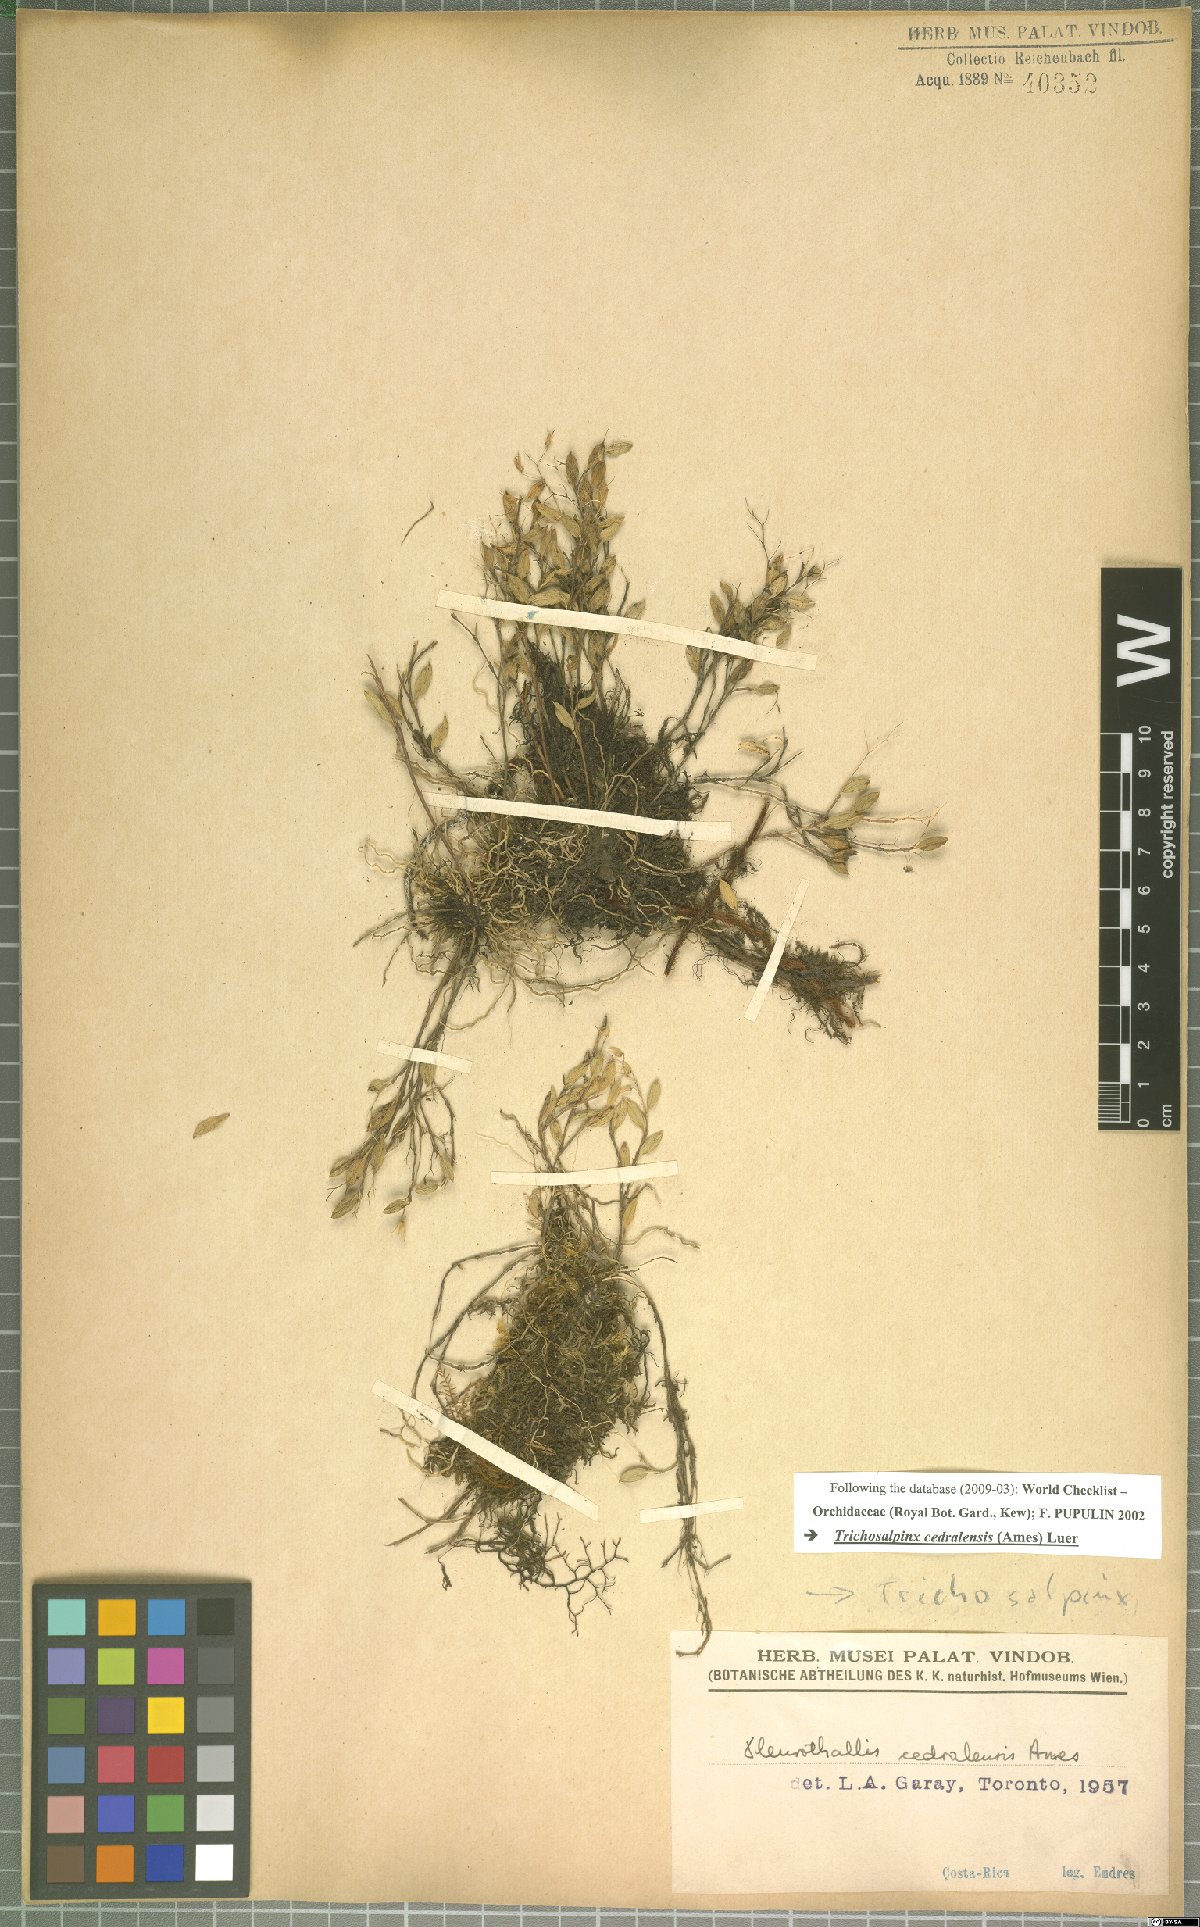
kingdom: Plantae
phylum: Tracheophyta
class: Liliopsida
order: Asparagales
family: Orchidaceae
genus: Trichosalpinx
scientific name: Trichosalpinx cedralensis
